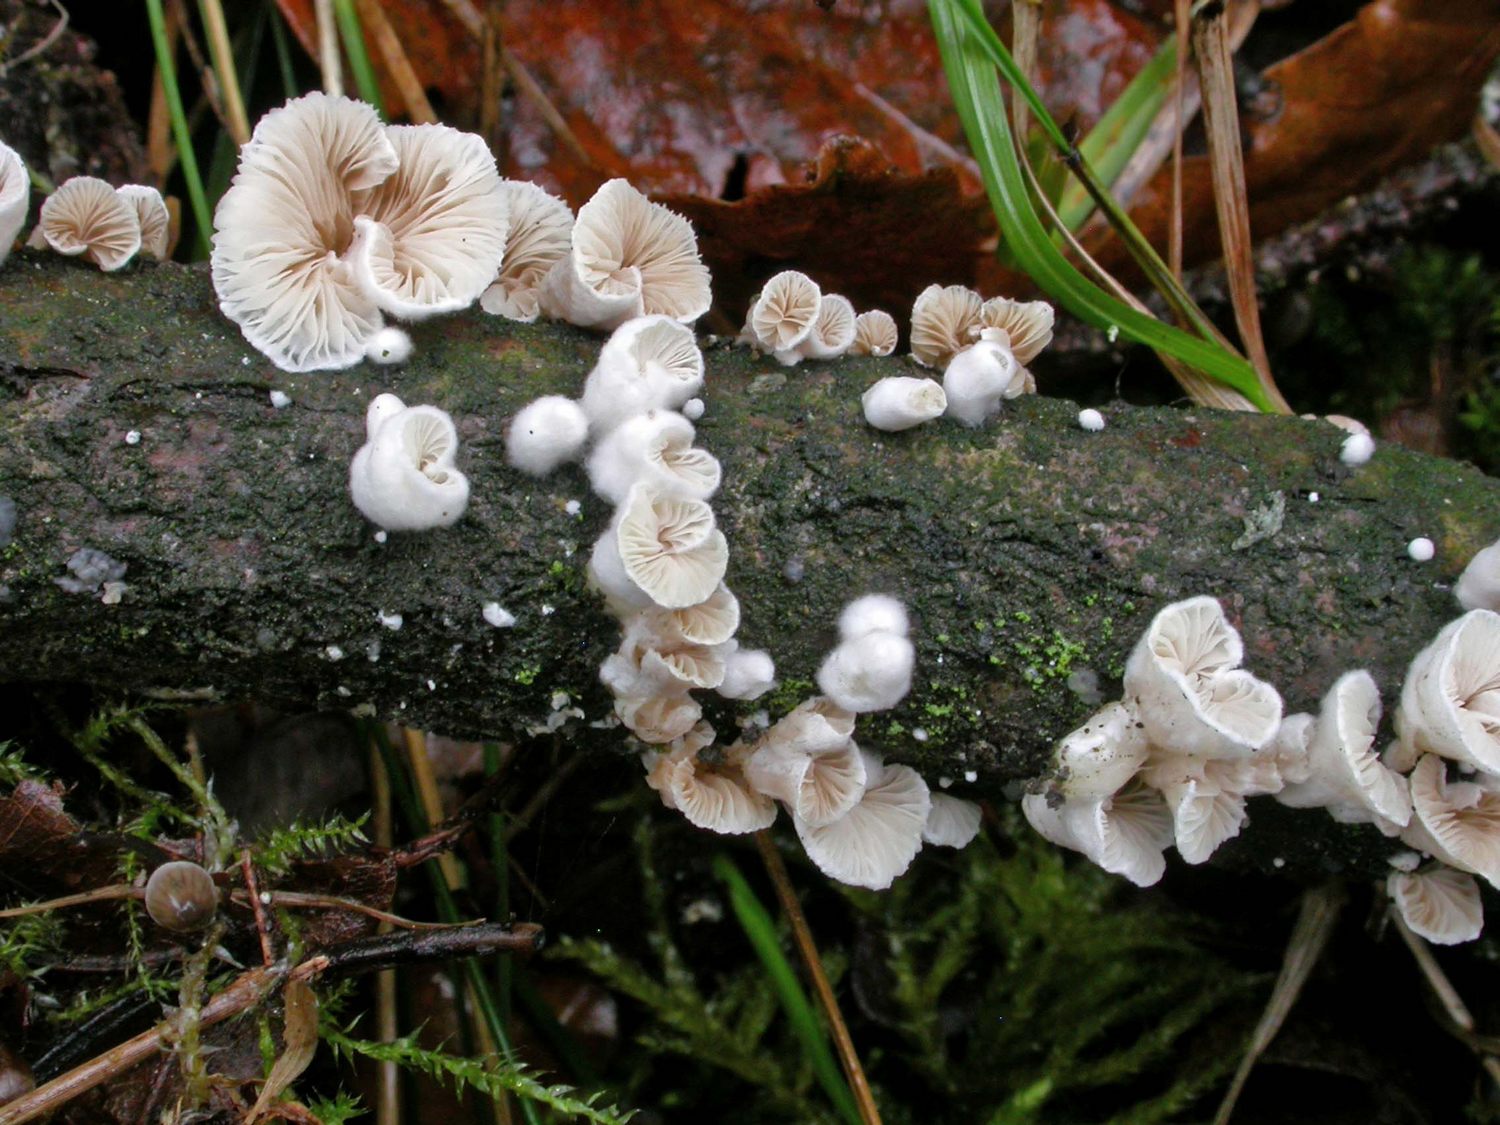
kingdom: Fungi
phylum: Basidiomycota
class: Agaricomycetes
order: Agaricales
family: Crepidotaceae
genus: Crepidotus
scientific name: Crepidotus variabilis
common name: forskelligformet muslingesvamp
